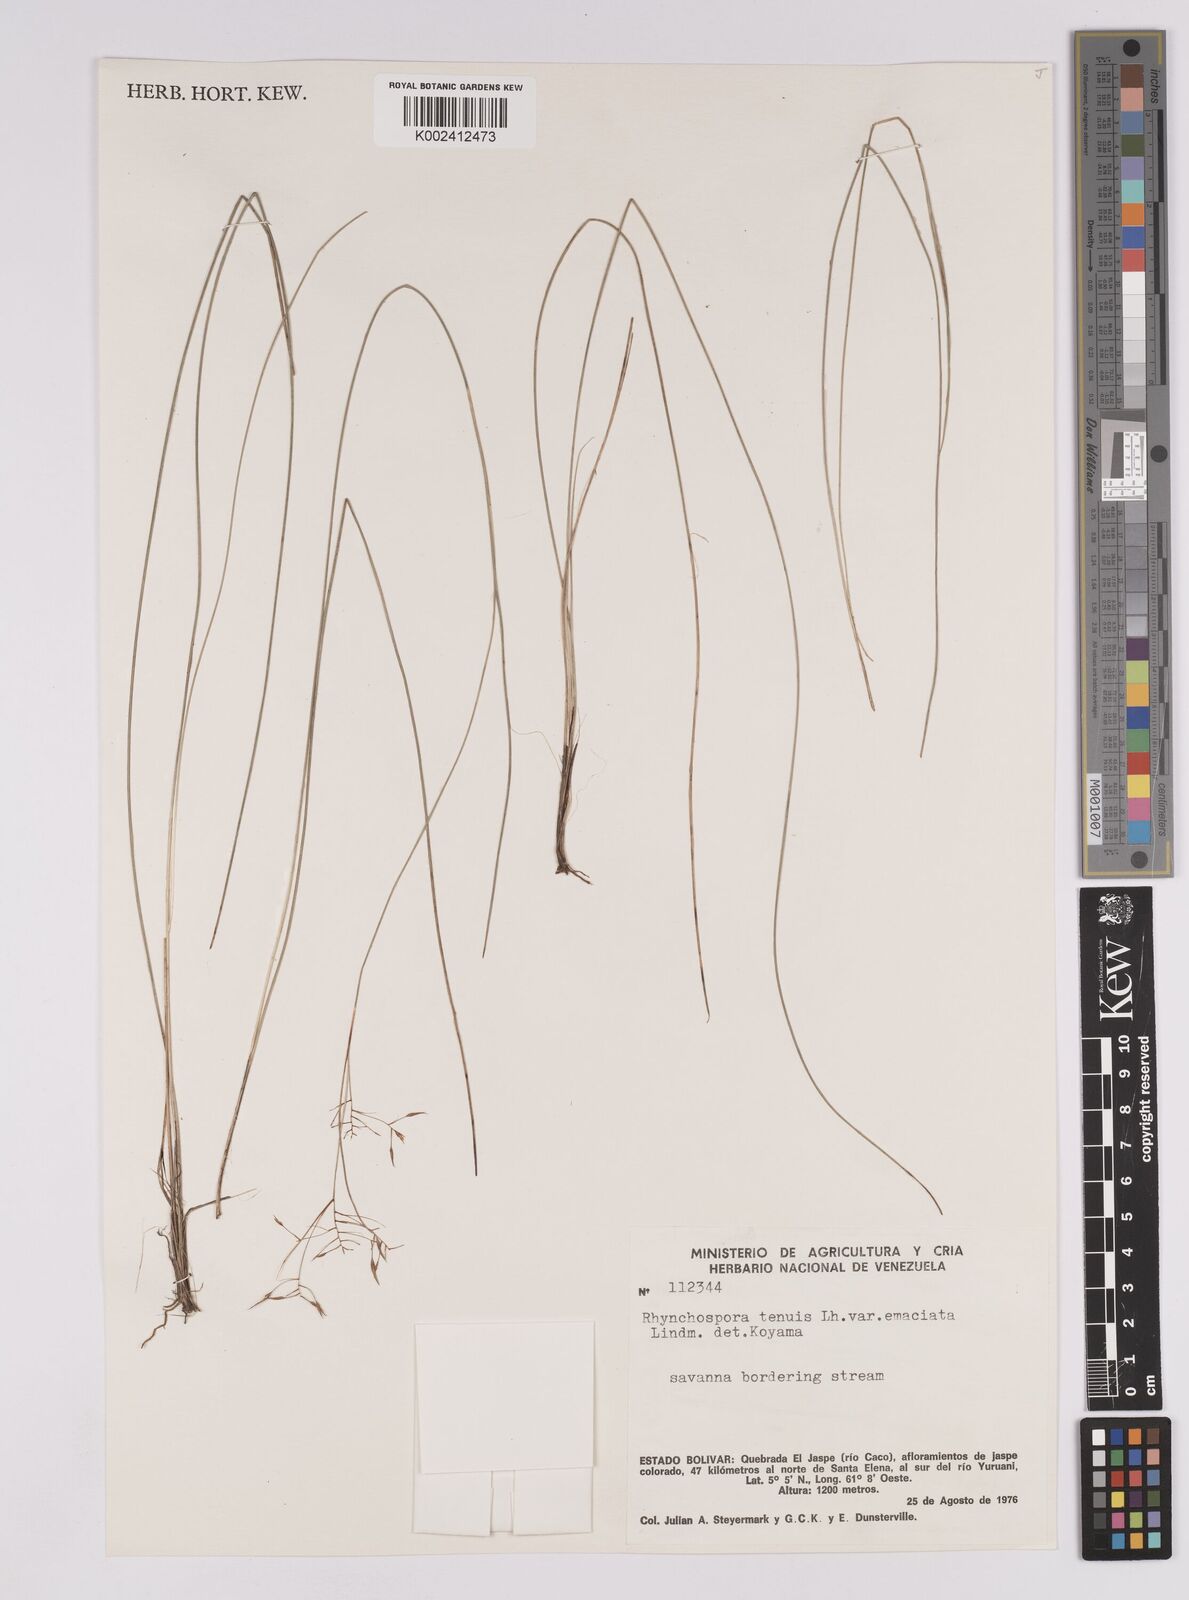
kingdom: Plantae
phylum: Tracheophyta
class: Liliopsida
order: Poales
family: Cyperaceae
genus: Rhynchospora
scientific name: Rhynchospora emaciata
